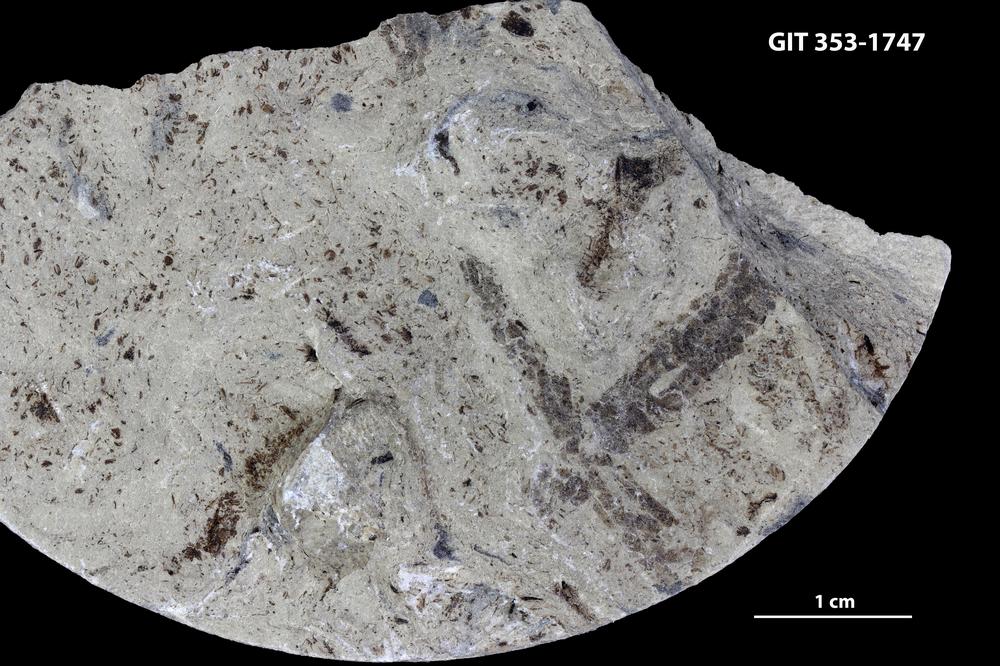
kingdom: Plantae
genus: Leveilleites
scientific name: Leveilleites hartnageli
